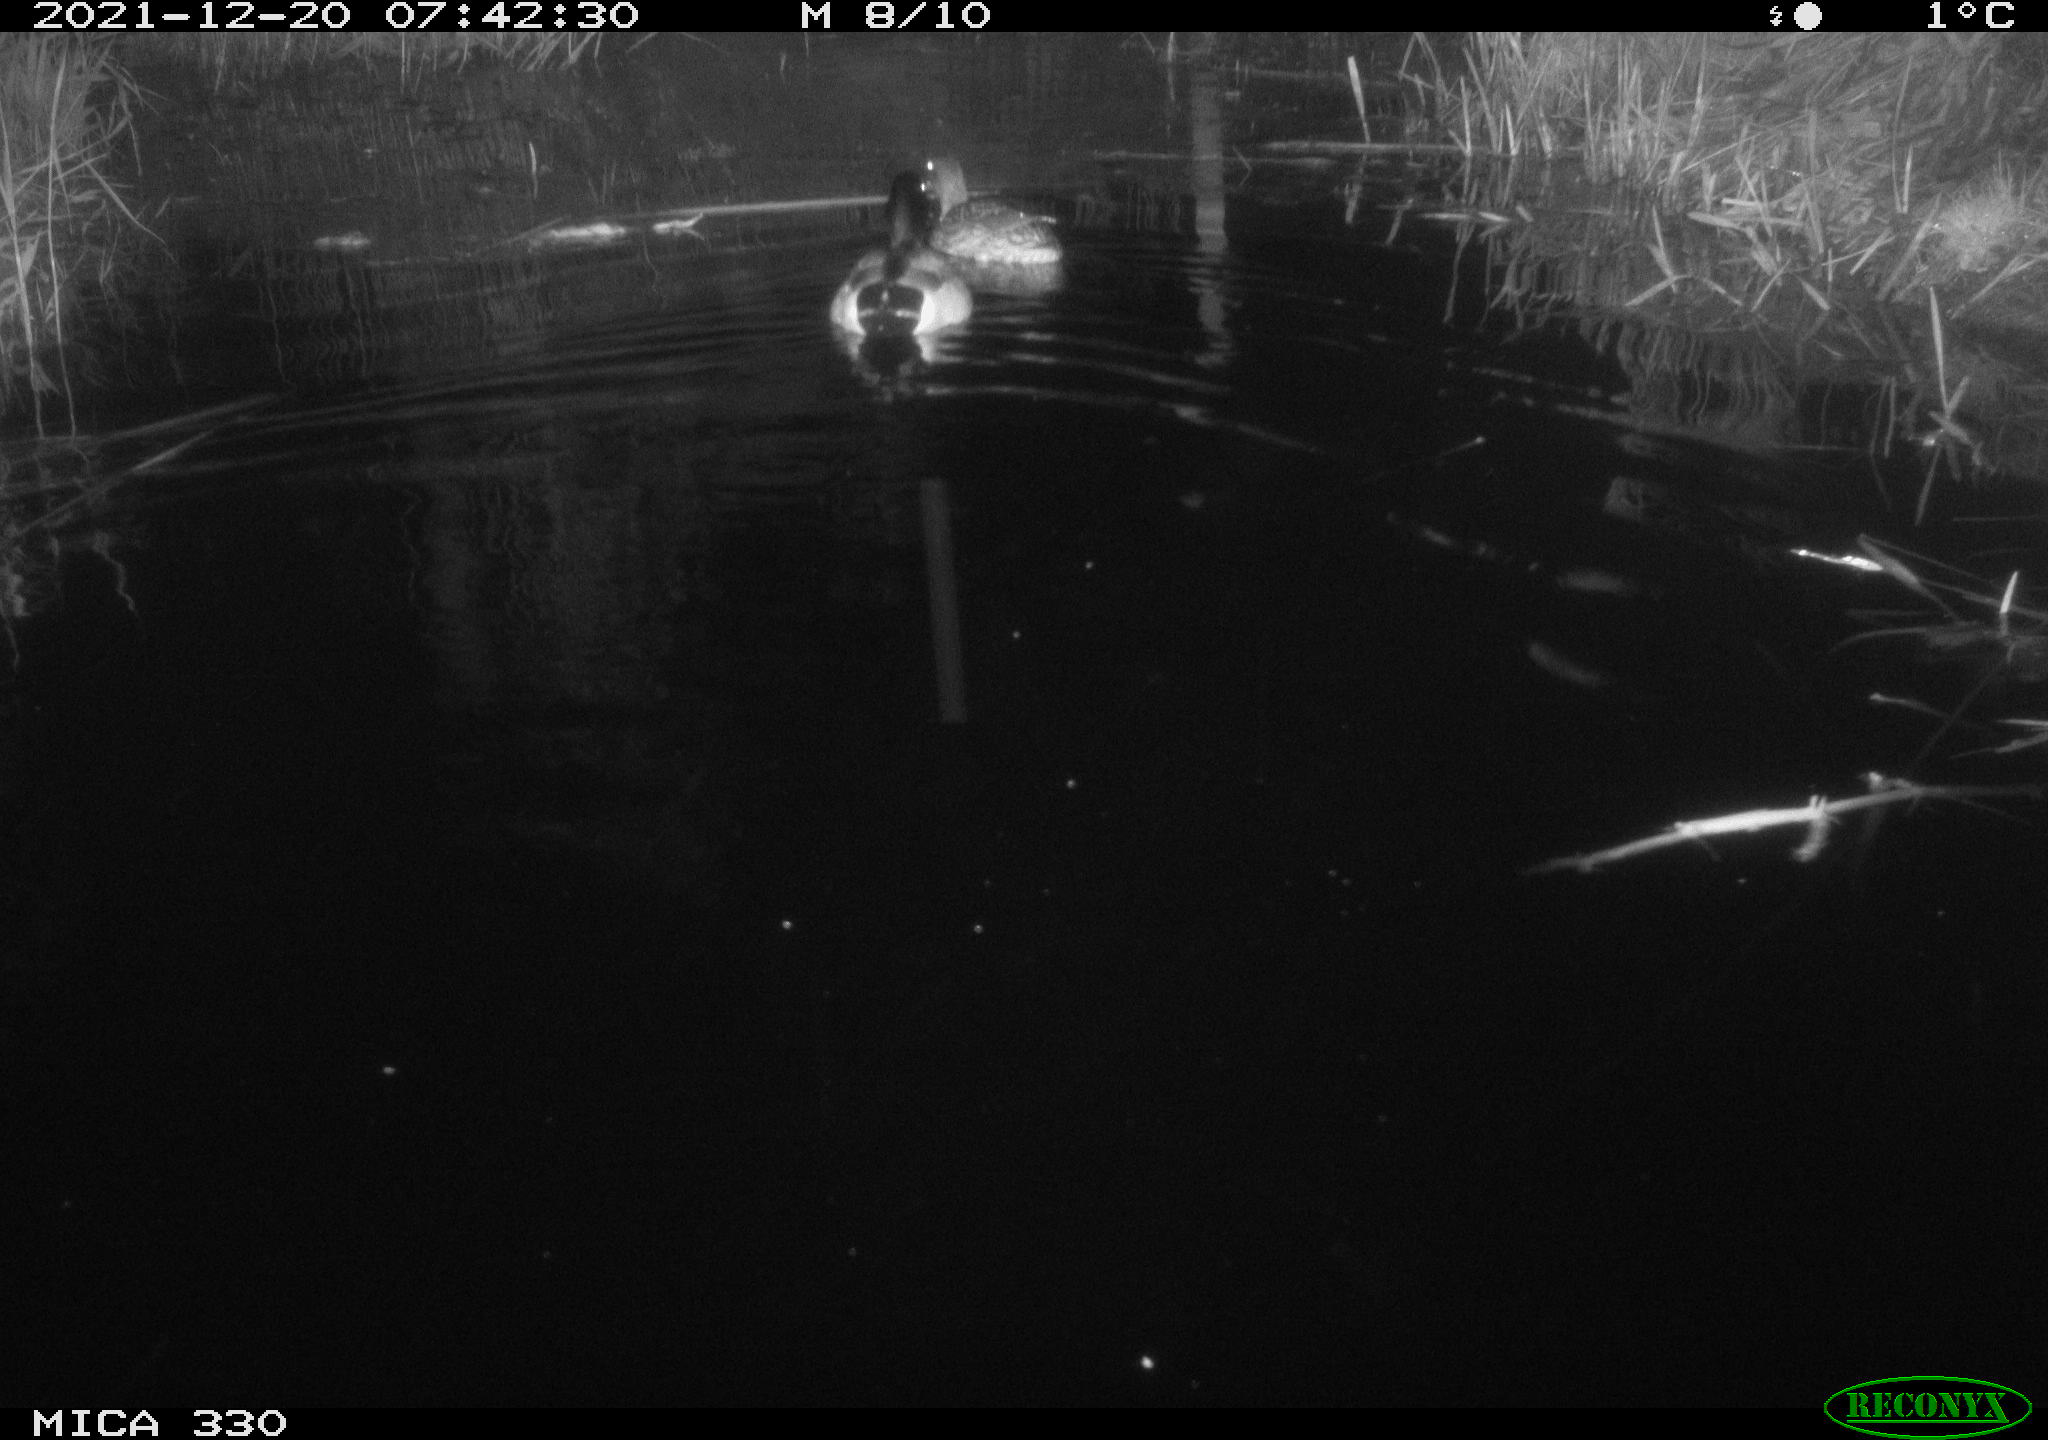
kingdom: Animalia
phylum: Chordata
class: Aves
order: Anseriformes
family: Anatidae
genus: Anas
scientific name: Anas platyrhynchos
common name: Mallard
